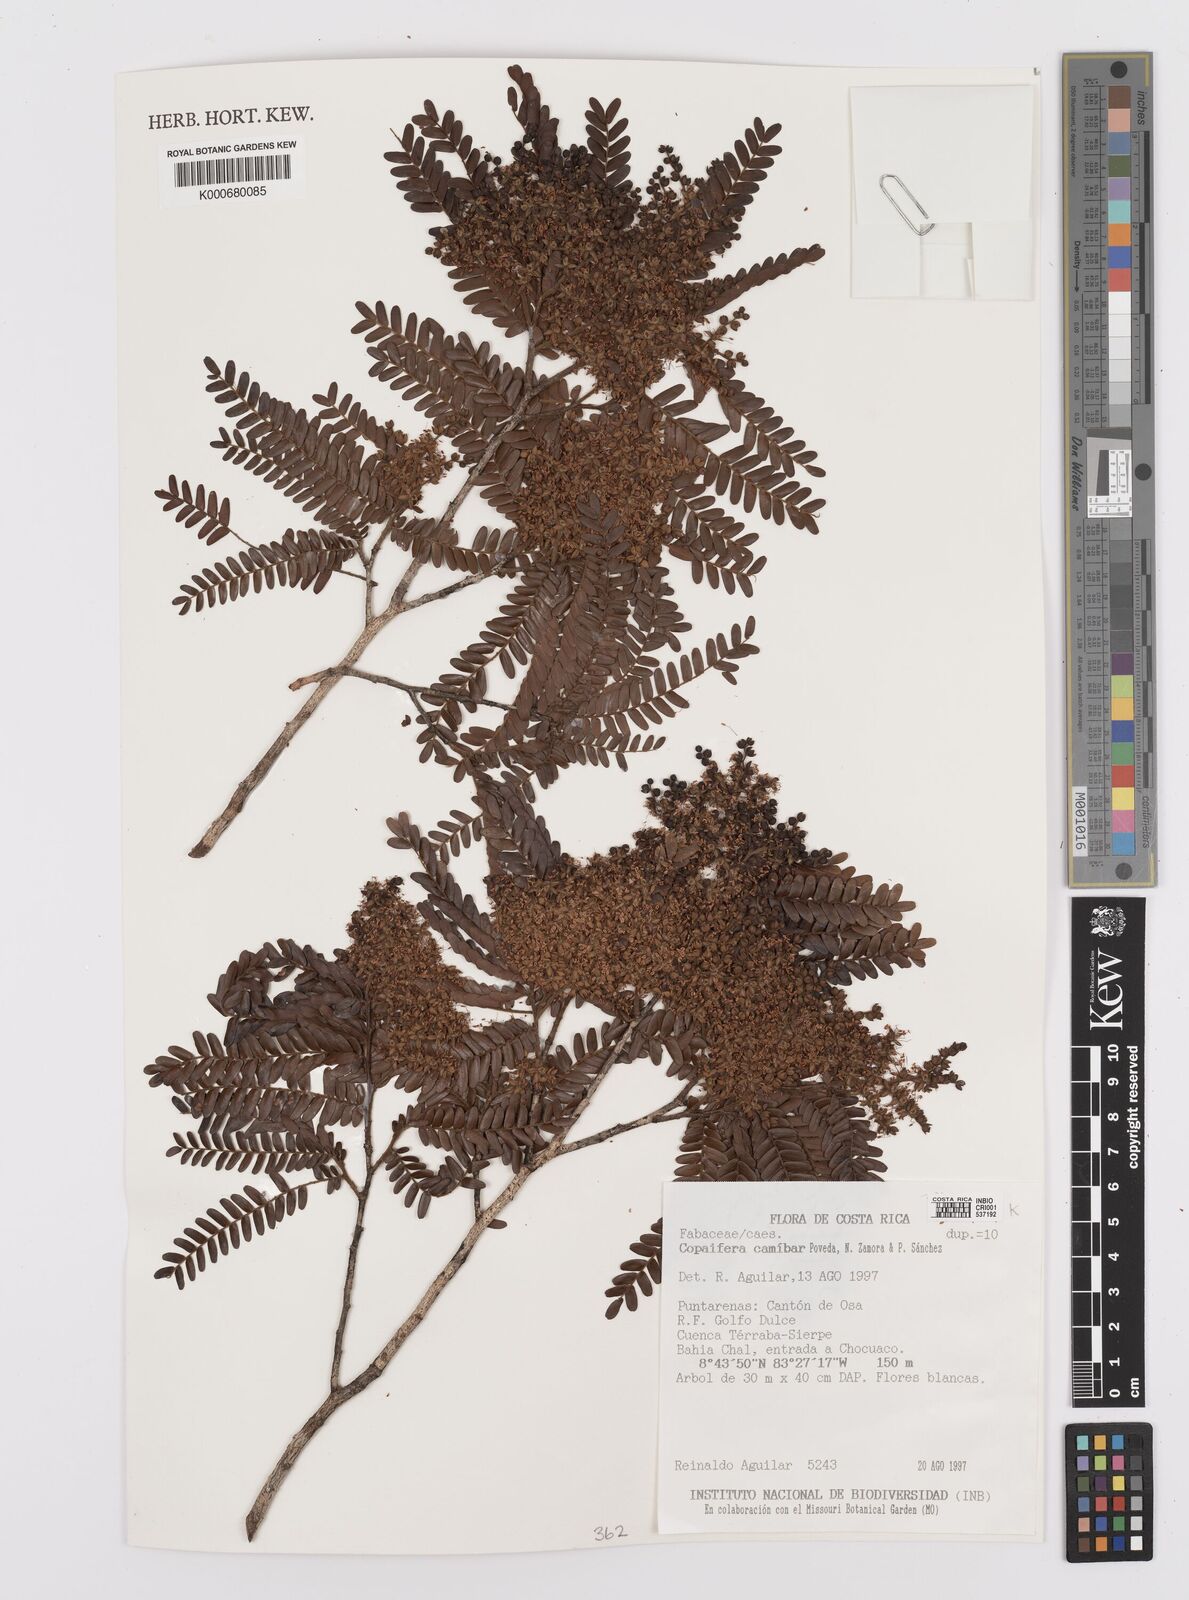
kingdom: Plantae
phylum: Tracheophyta
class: Magnoliopsida
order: Fabales
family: Fabaceae
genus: Copaifera
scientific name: Copaifera
